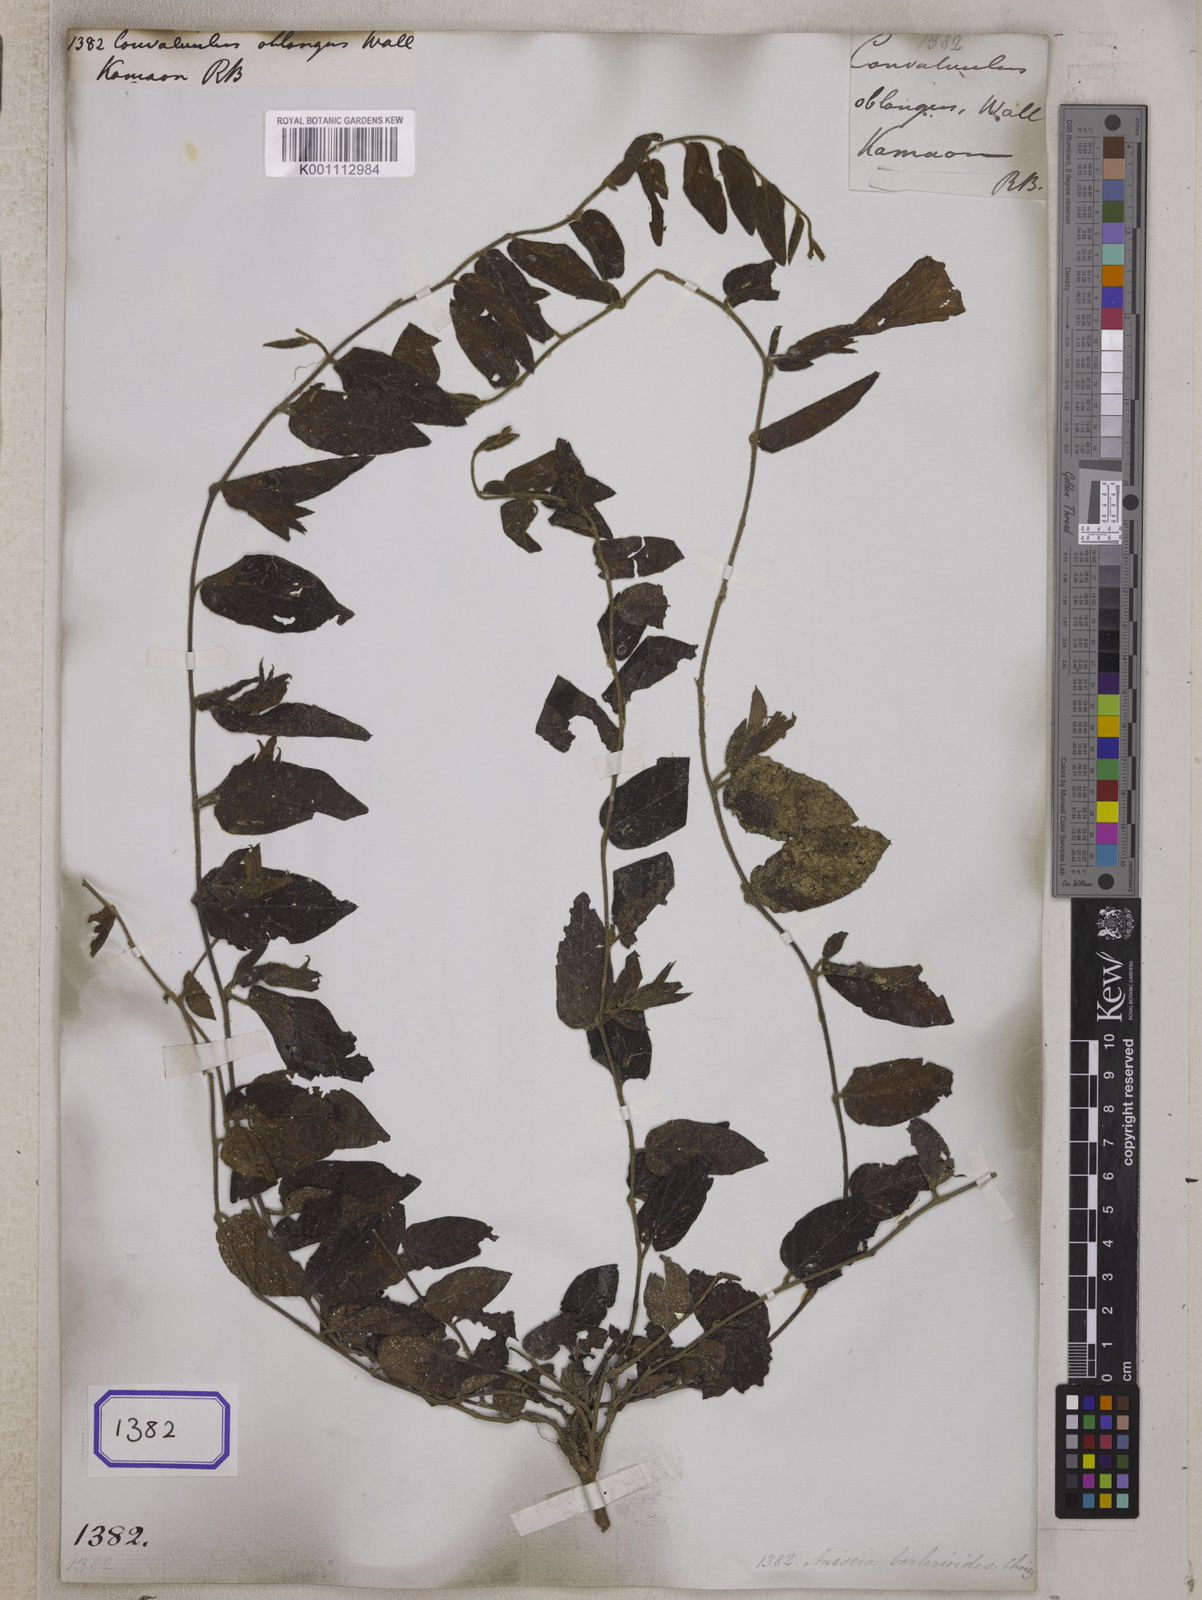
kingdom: Plantae
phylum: Tracheophyta
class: Magnoliopsida
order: Solanales
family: Convolvulaceae
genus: Convolvulus
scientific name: Convolvulus
